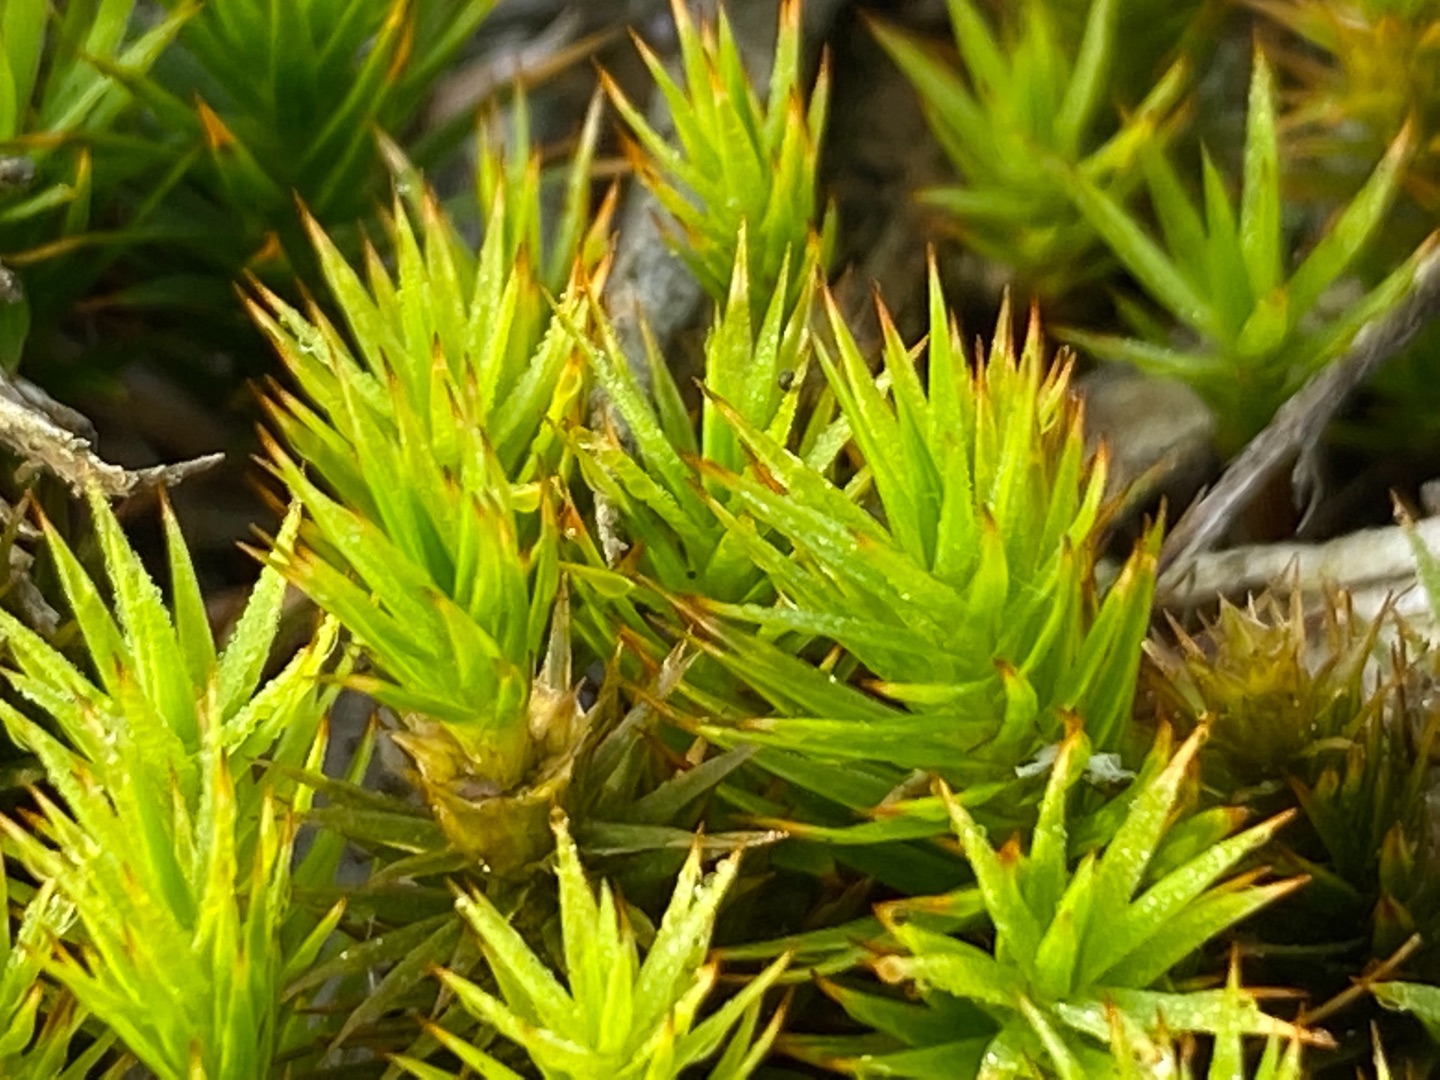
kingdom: Plantae
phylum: Bryophyta
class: Polytrichopsida
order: Polytrichales
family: Polytrichaceae
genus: Polytrichum
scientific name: Polytrichum juniperinum
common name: Ene-jomfruhår
